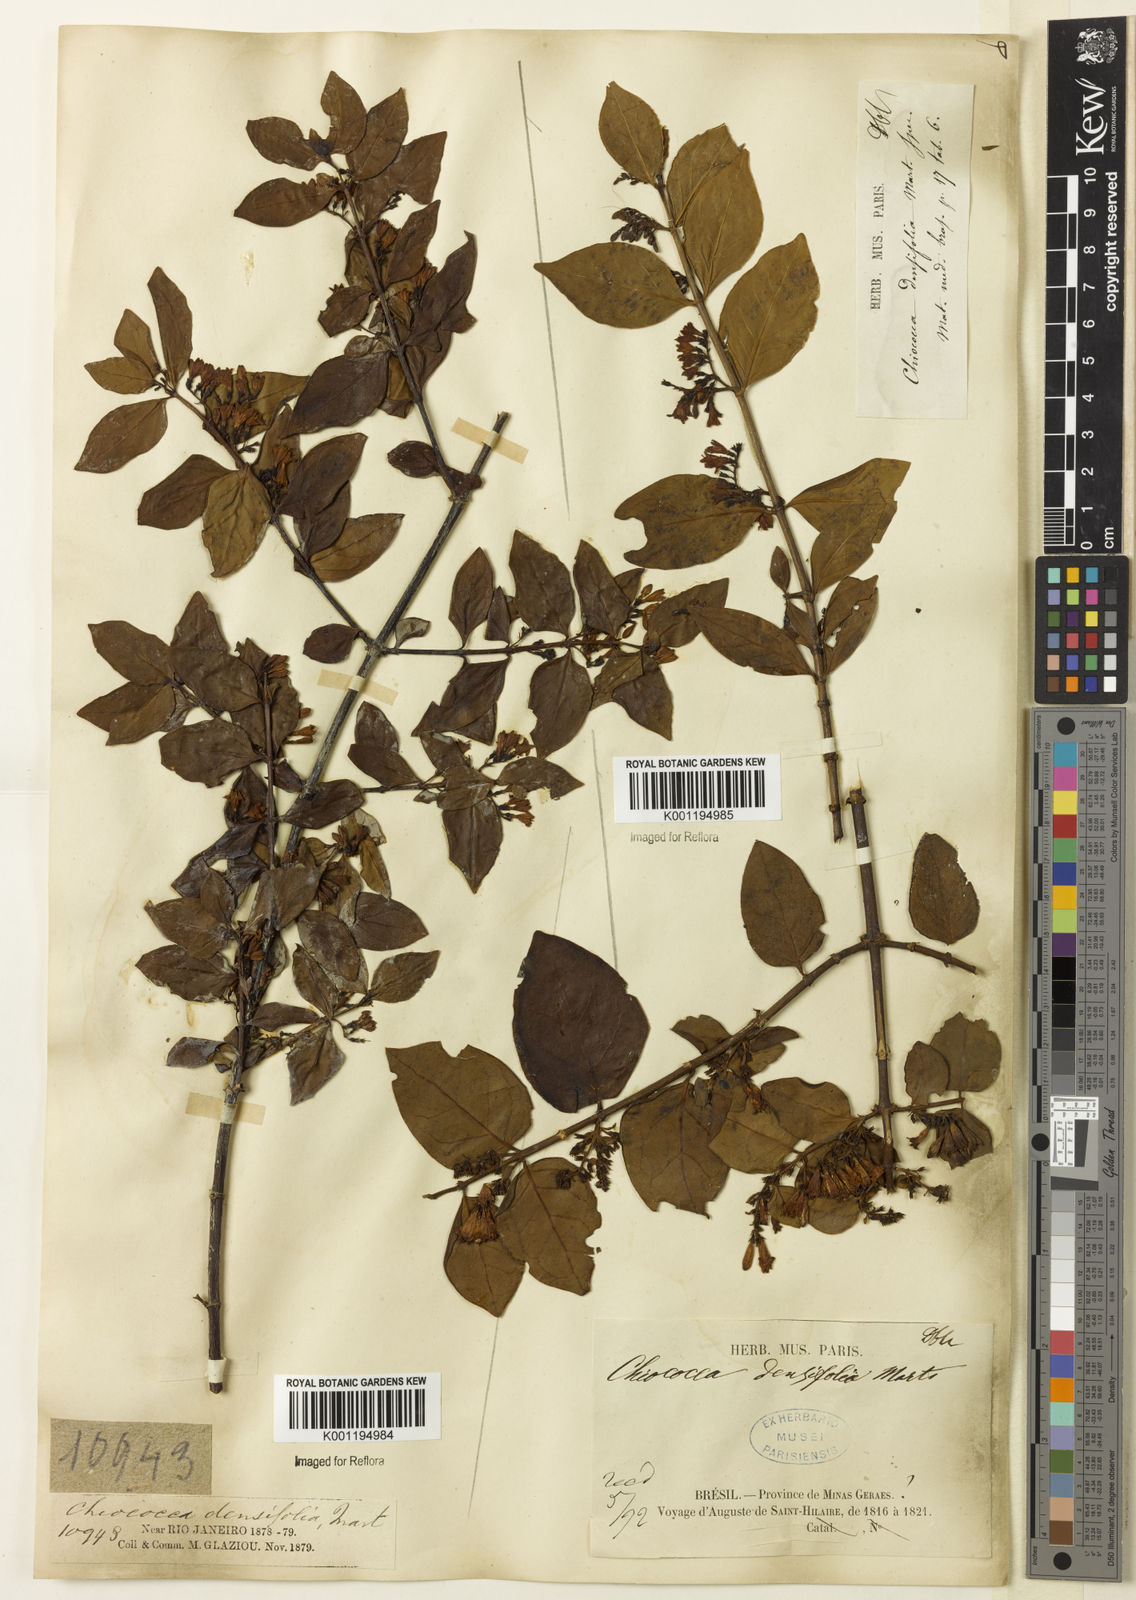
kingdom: Plantae
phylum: Tracheophyta
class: Magnoliopsida
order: Gentianales
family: Rubiaceae
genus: Chiococca
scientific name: Chiococca alba
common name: Snowberry
